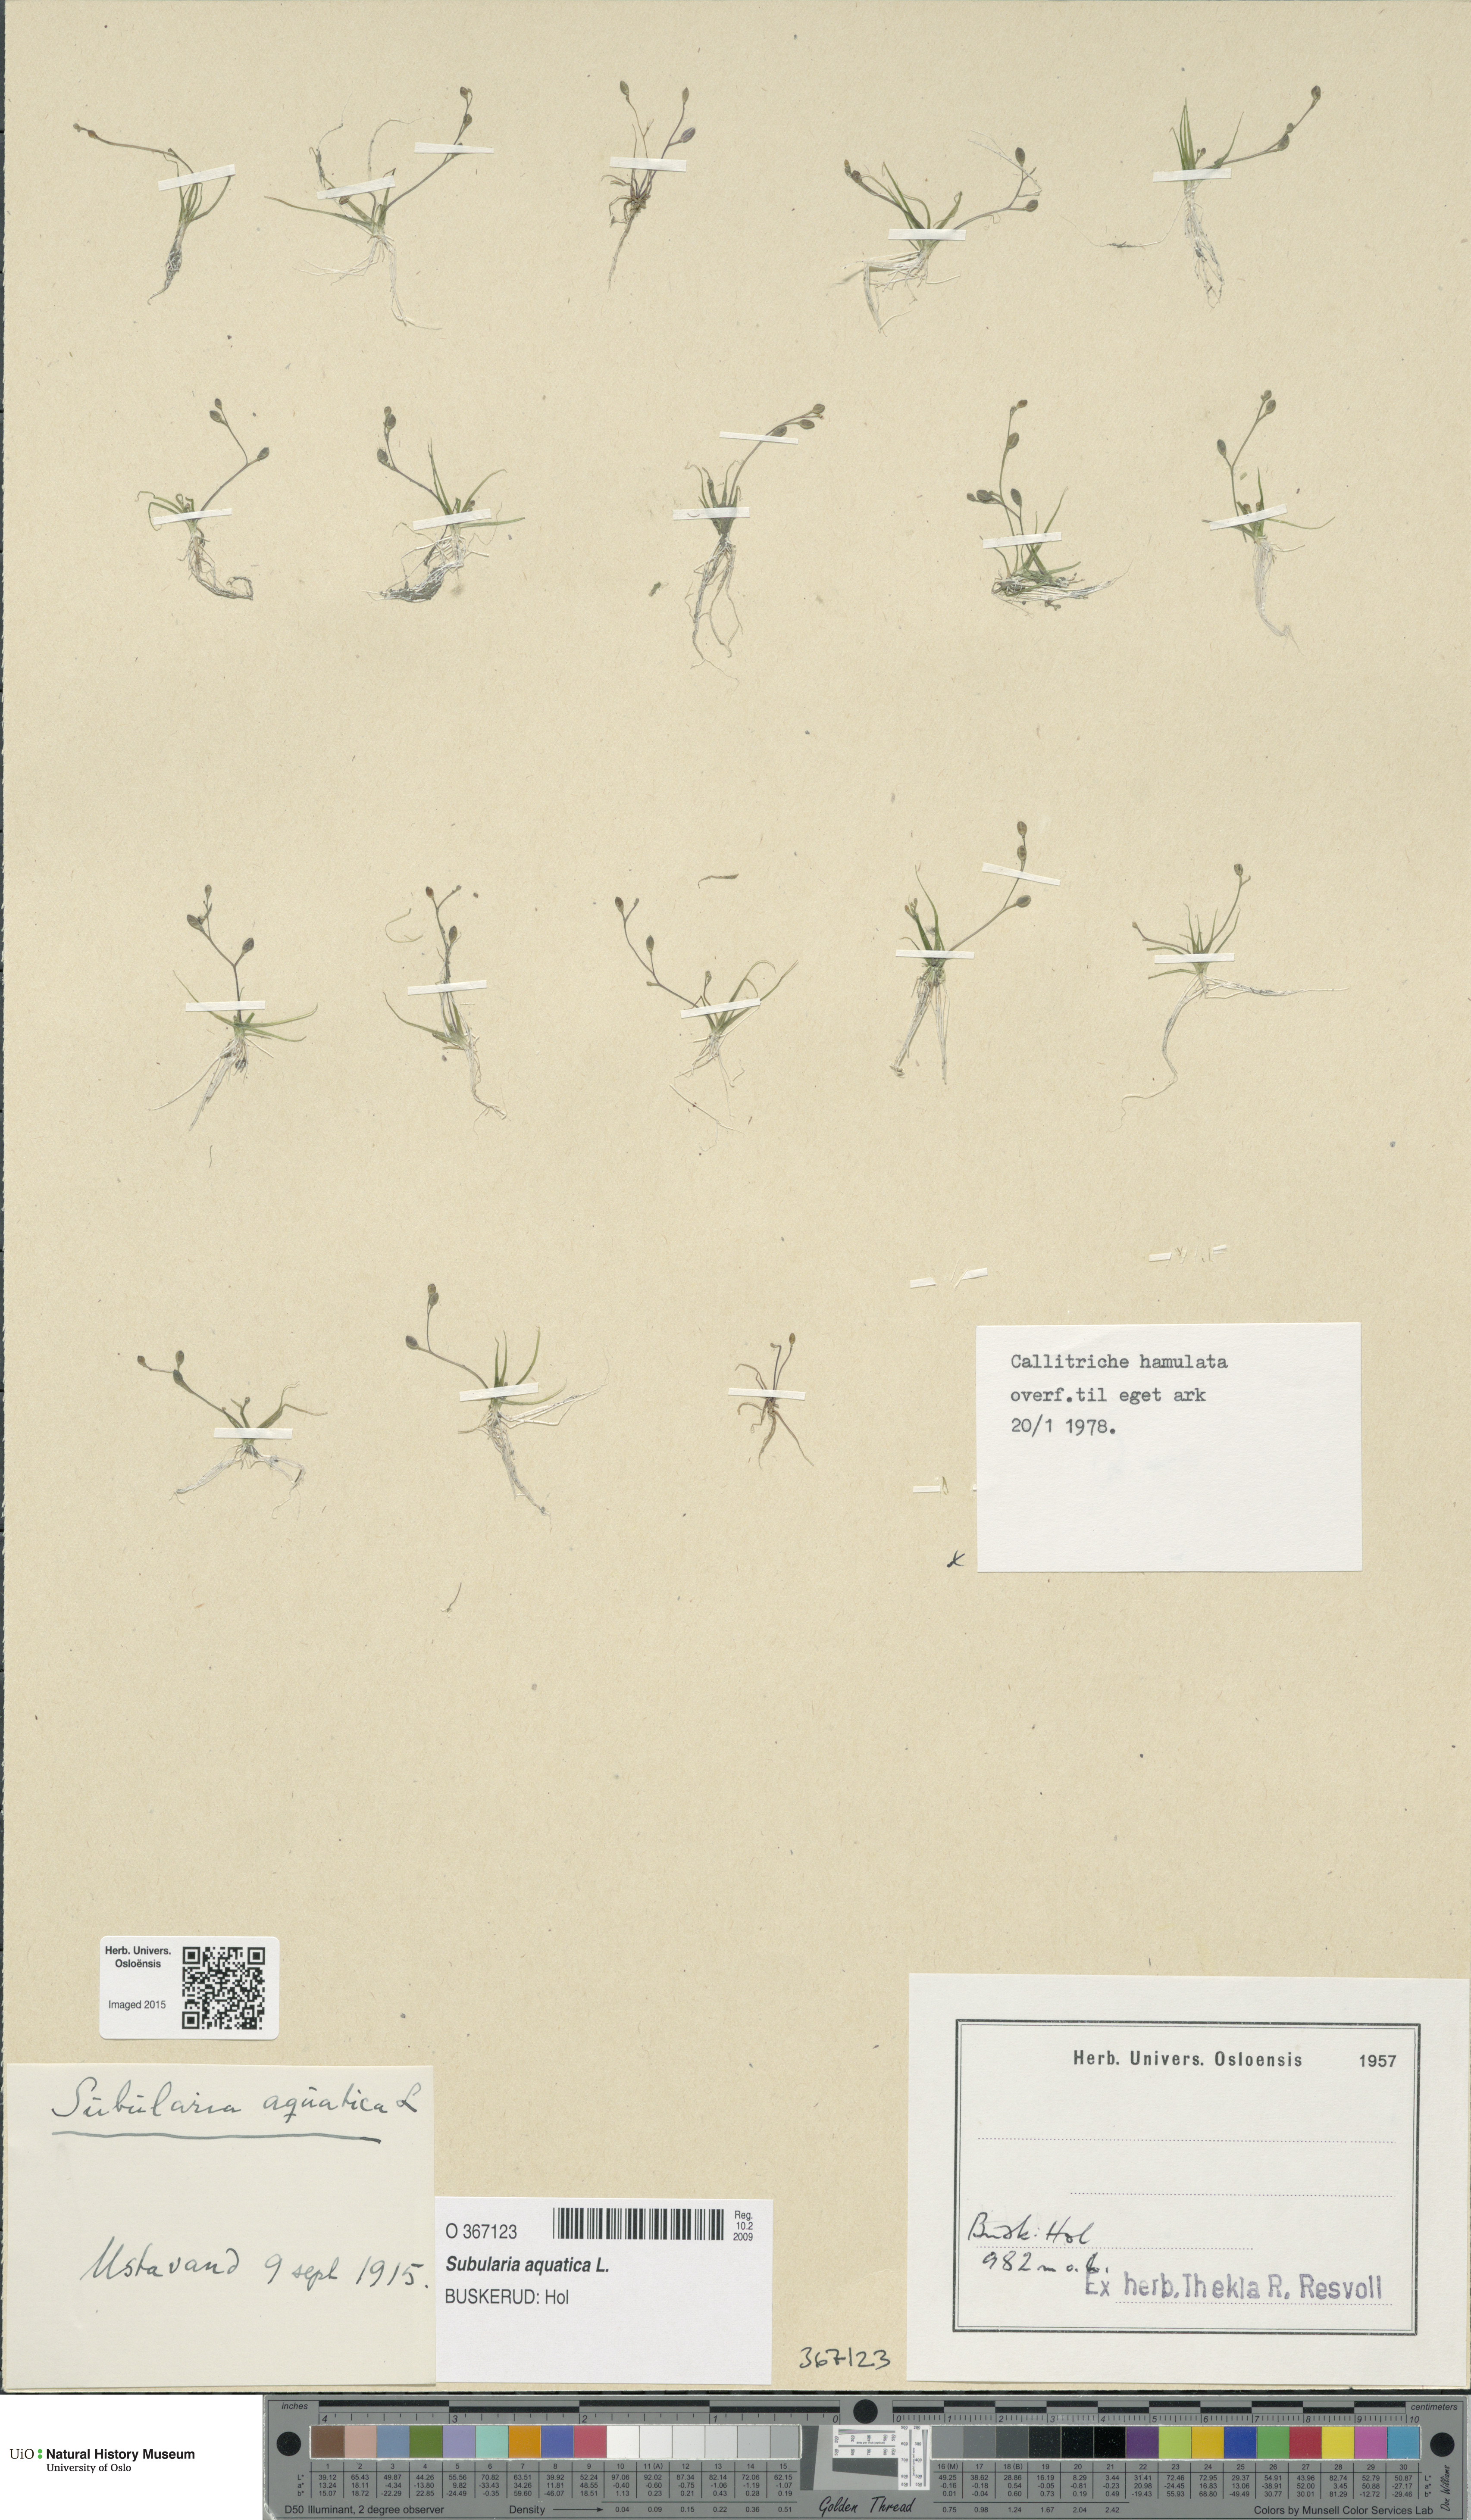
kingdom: Plantae
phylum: Tracheophyta
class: Magnoliopsida
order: Brassicales
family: Brassicaceae
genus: Subularia
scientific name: Subularia aquatica
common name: Awlwort
